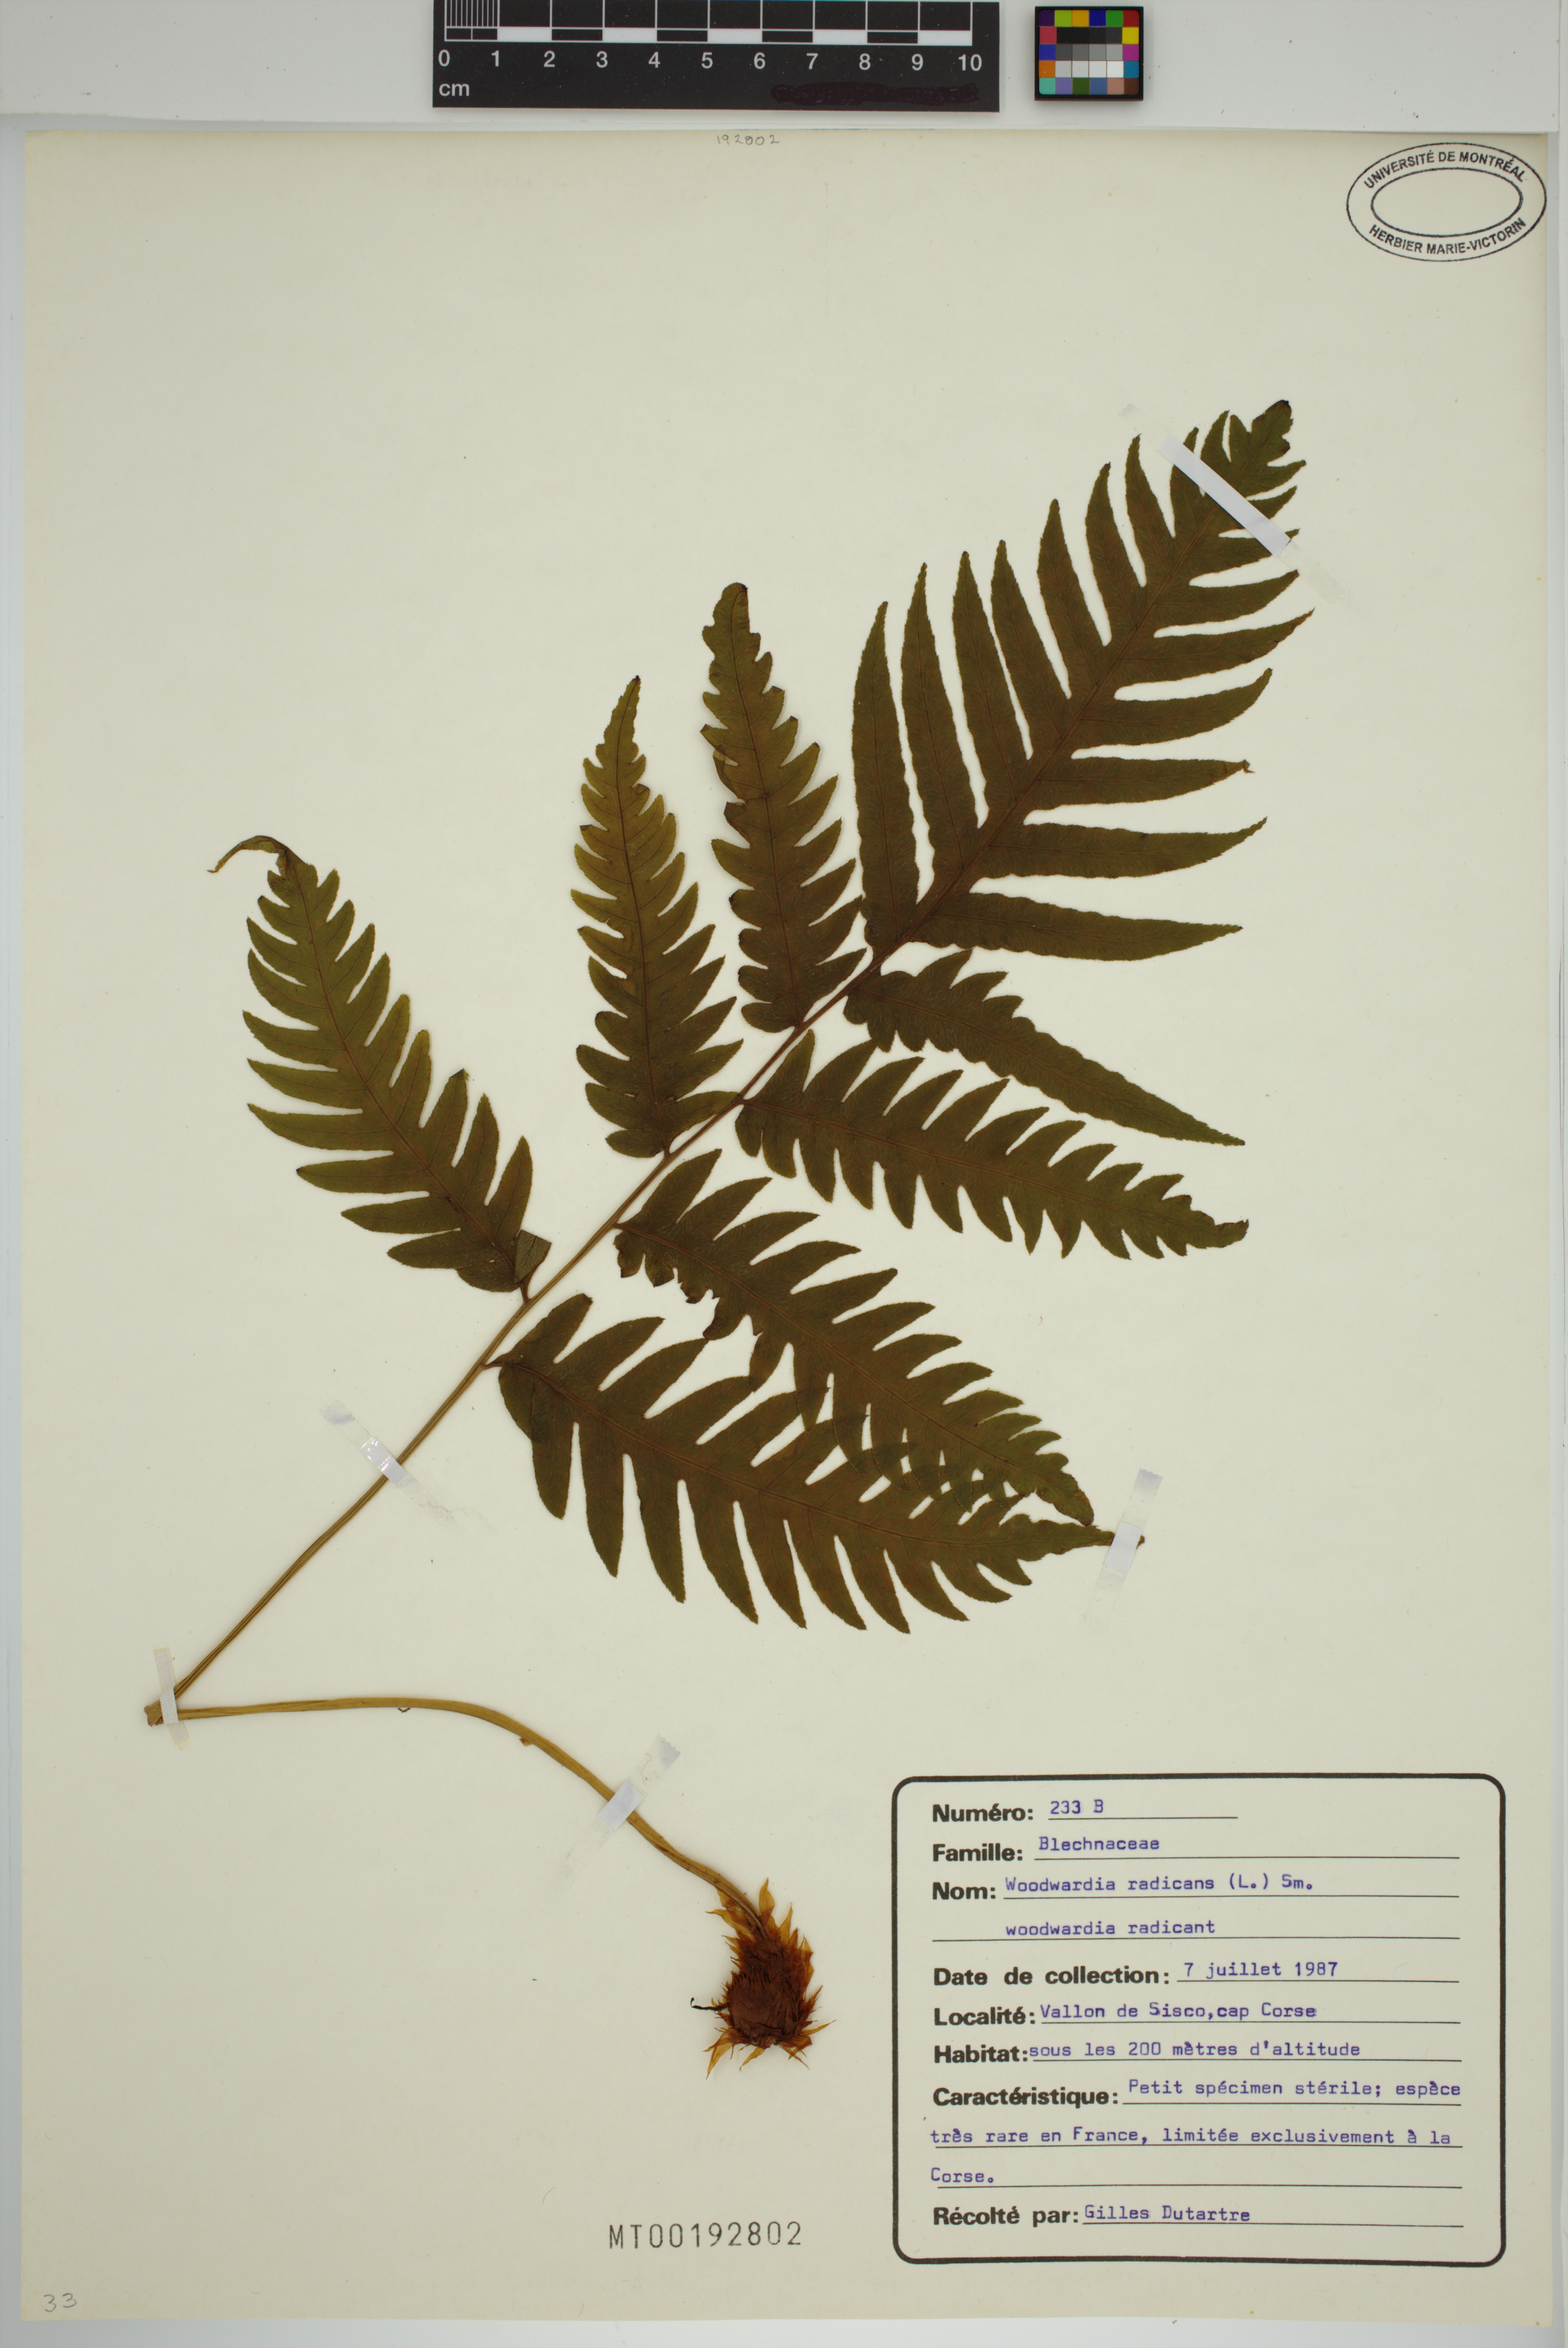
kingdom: Plantae
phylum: Tracheophyta
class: Polypodiopsida
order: Polypodiales
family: Blechnaceae
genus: Woodwardia
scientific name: Woodwardia radicans
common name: Rooting chainfern
